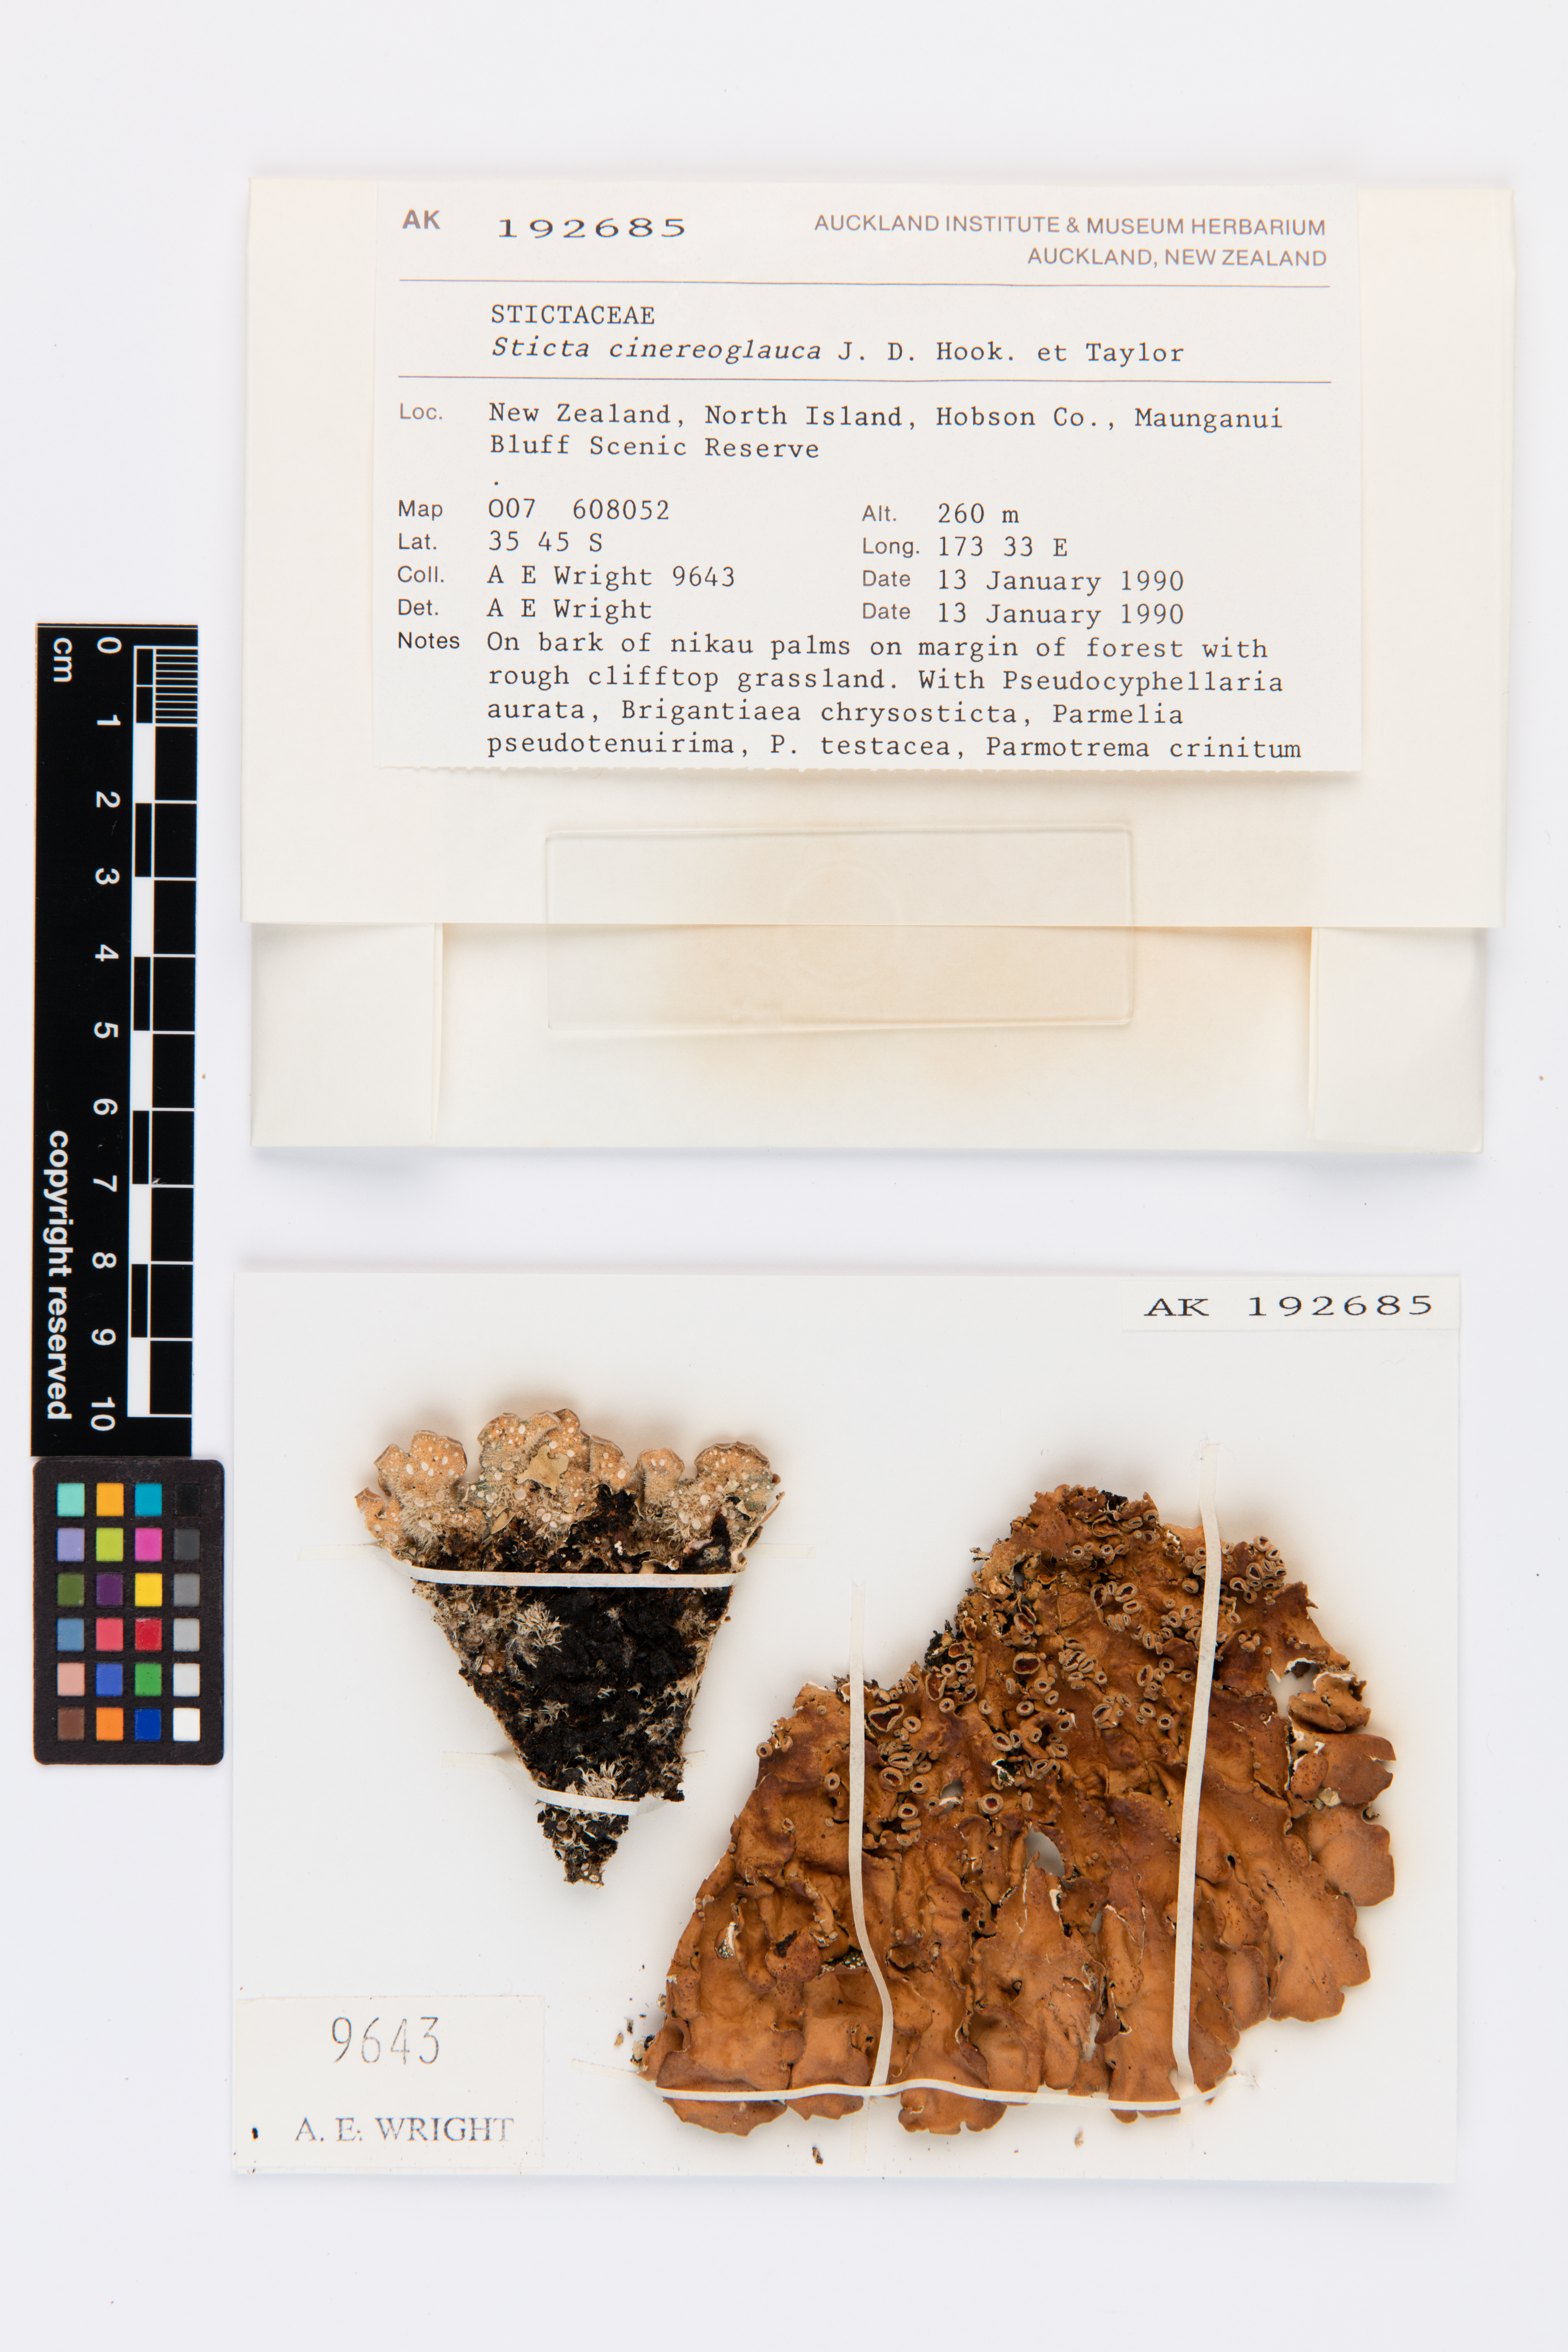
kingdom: Fungi
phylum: Ascomycota
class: Lecanoromycetes
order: Peltigerales
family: Lobariaceae
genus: Sticta
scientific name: Sticta cinereoglauca
